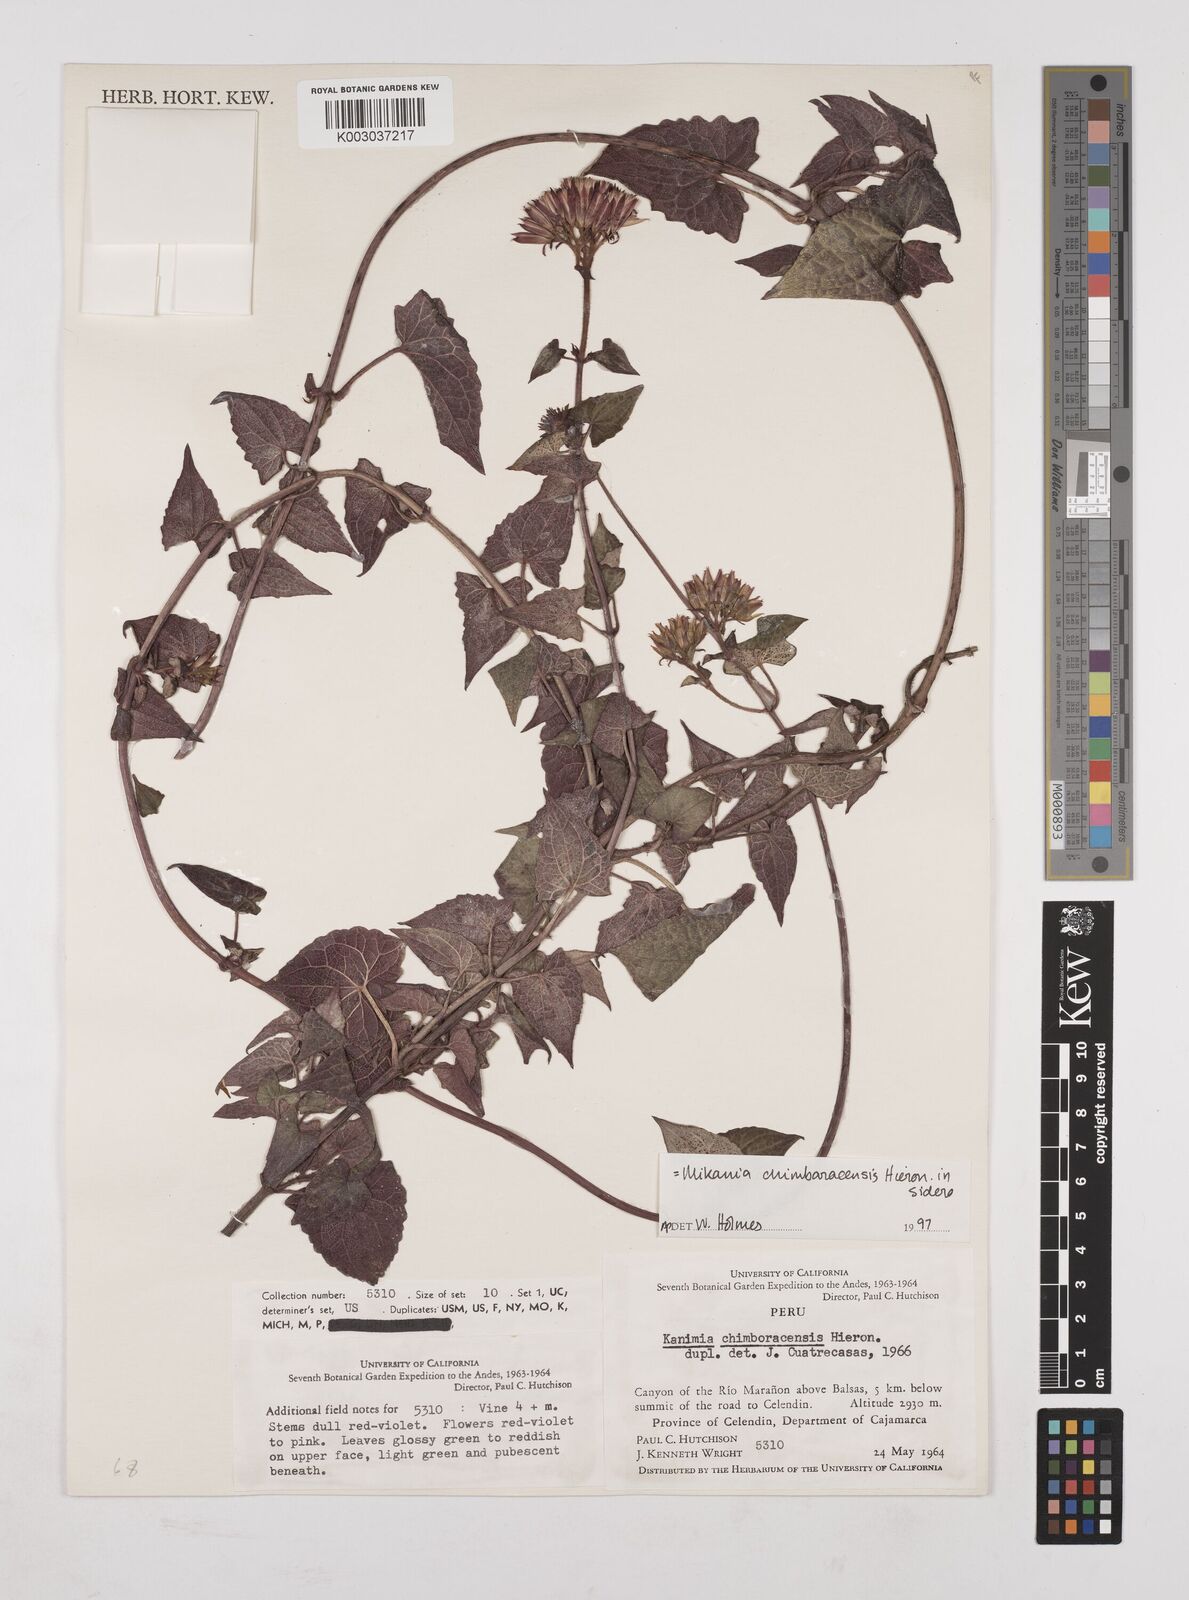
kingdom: Plantae
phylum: Tracheophyta
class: Magnoliopsida
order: Asterales
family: Asteraceae
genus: Mikania
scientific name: Mikania chimborazensis
